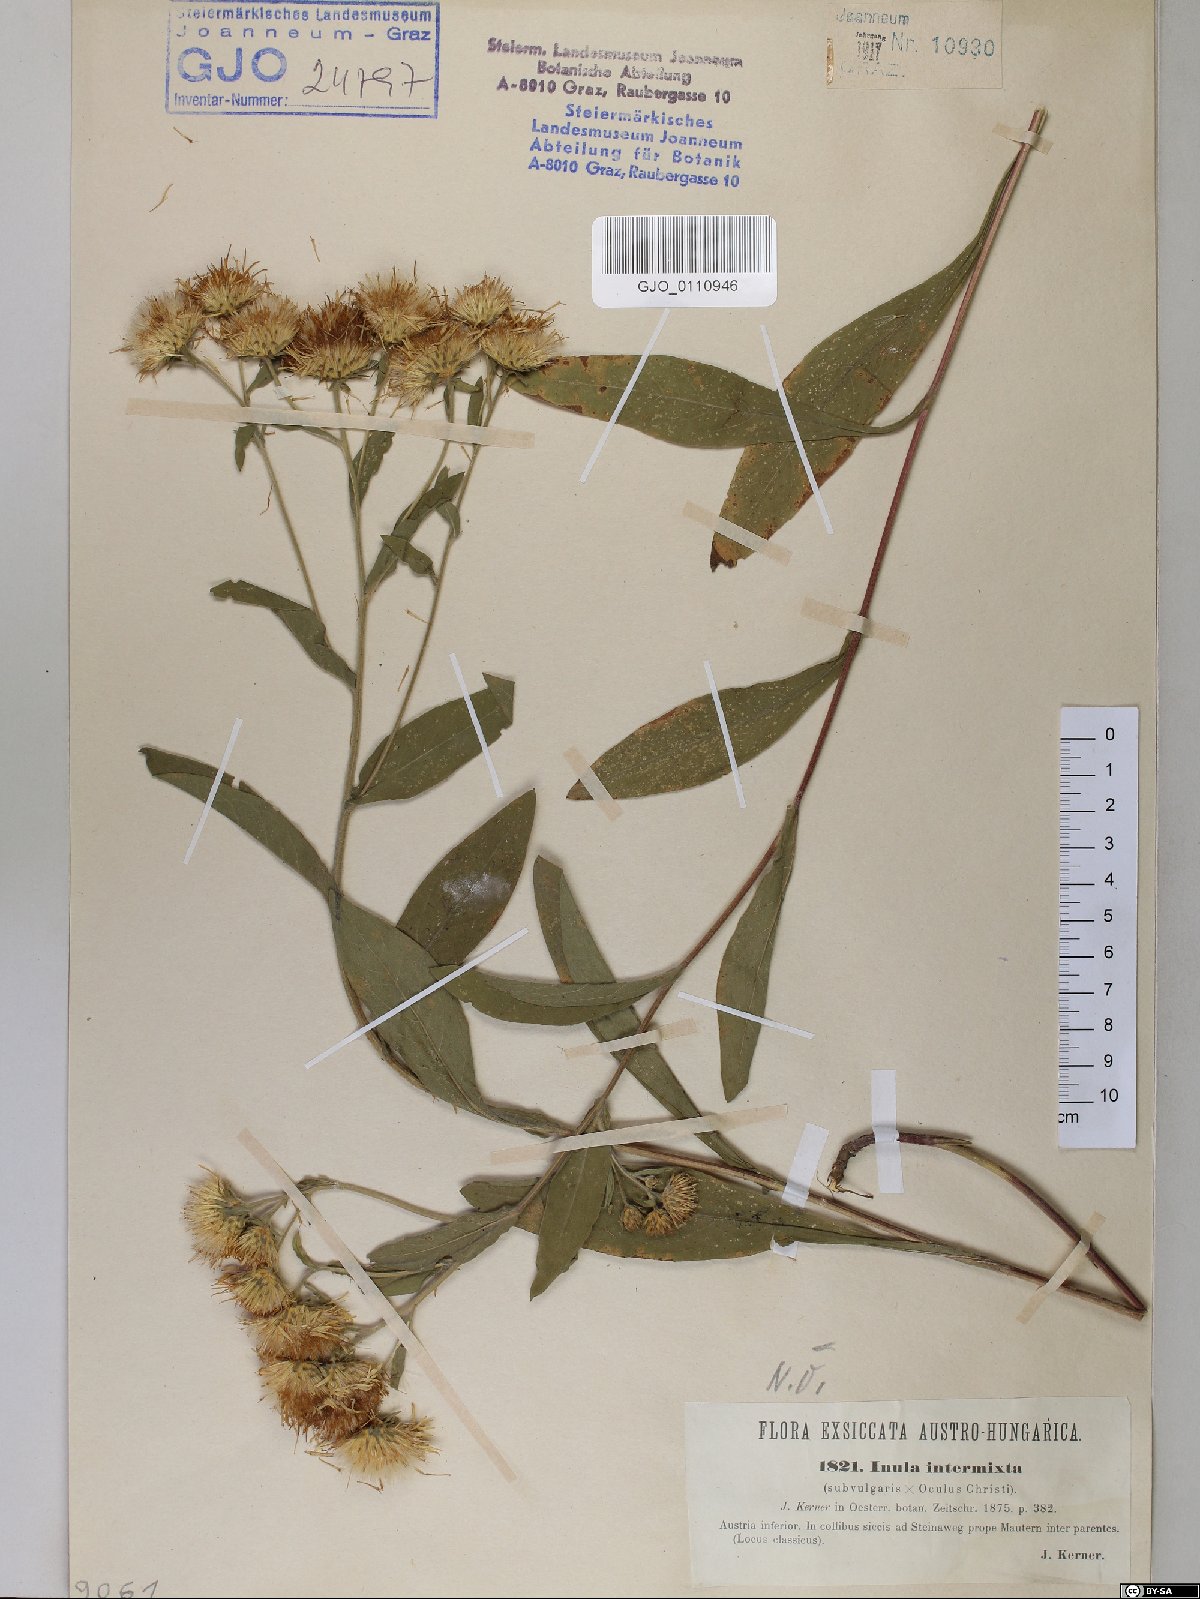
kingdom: Plantae
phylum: Tracheophyta
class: Magnoliopsida
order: Asterales
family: Asteraceae
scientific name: Asteraceae
